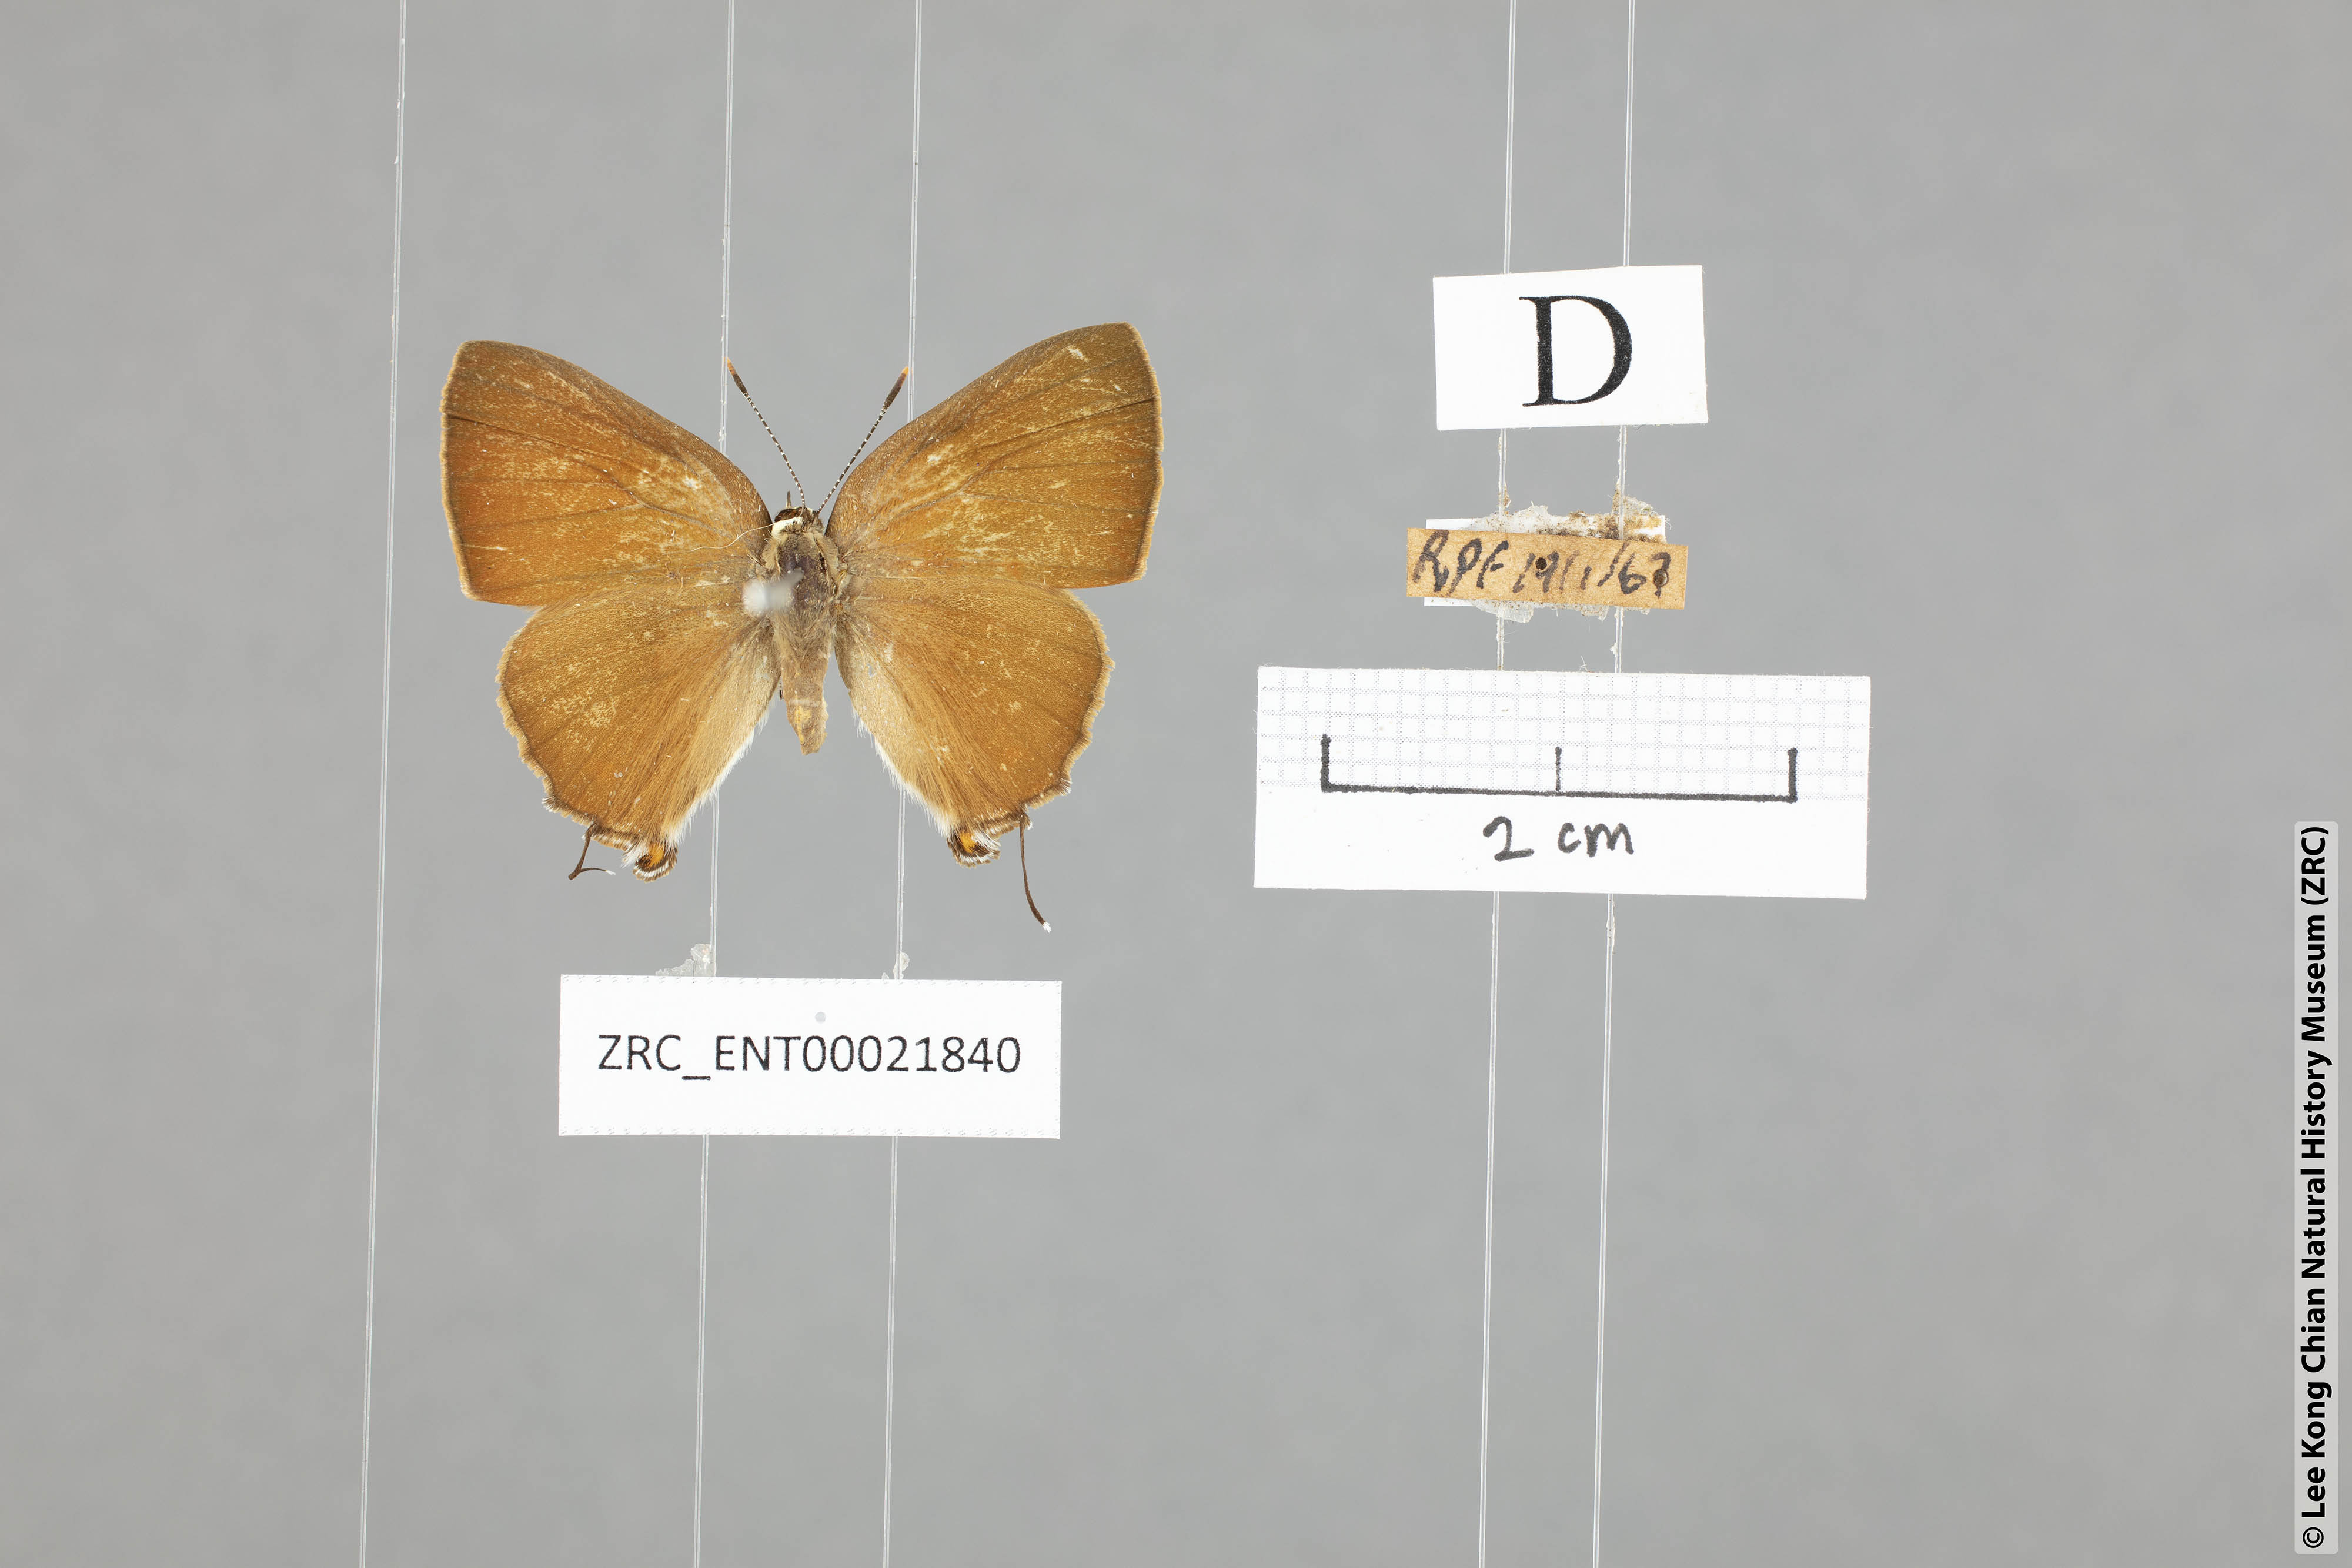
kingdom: Animalia
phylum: Arthropoda
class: Insecta
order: Lepidoptera
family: Lycaenidae
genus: Rapala
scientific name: Rapala iarbas
